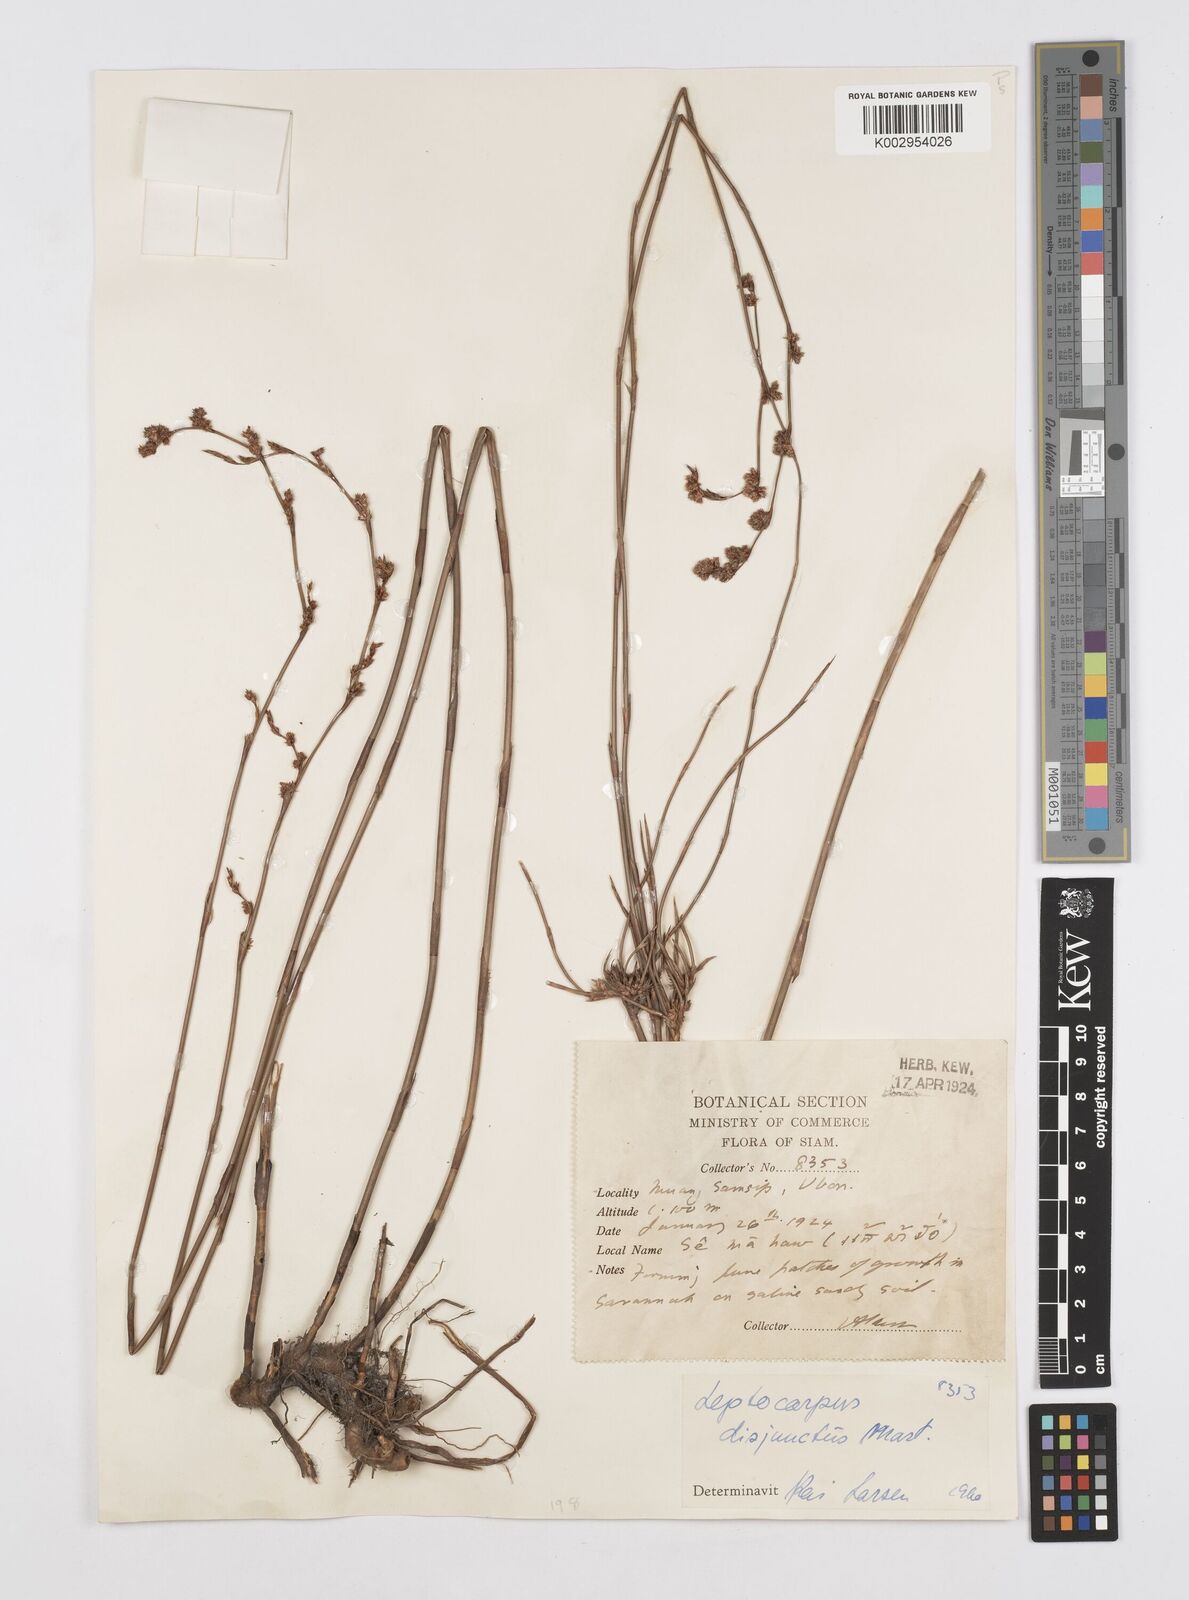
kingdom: Plantae
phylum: Tracheophyta
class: Liliopsida
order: Poales
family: Restionaceae
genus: Dapsilanthus
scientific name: Dapsilanthus disjunctus
